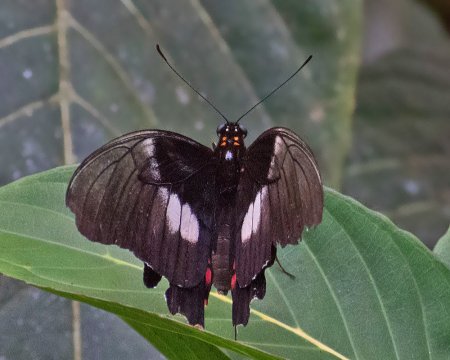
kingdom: Animalia
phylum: Arthropoda
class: Insecta
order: Lepidoptera
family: Papilionidae
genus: Papilio
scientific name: Papilio anchisiades
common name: Ruby-spotted Swallowtail
